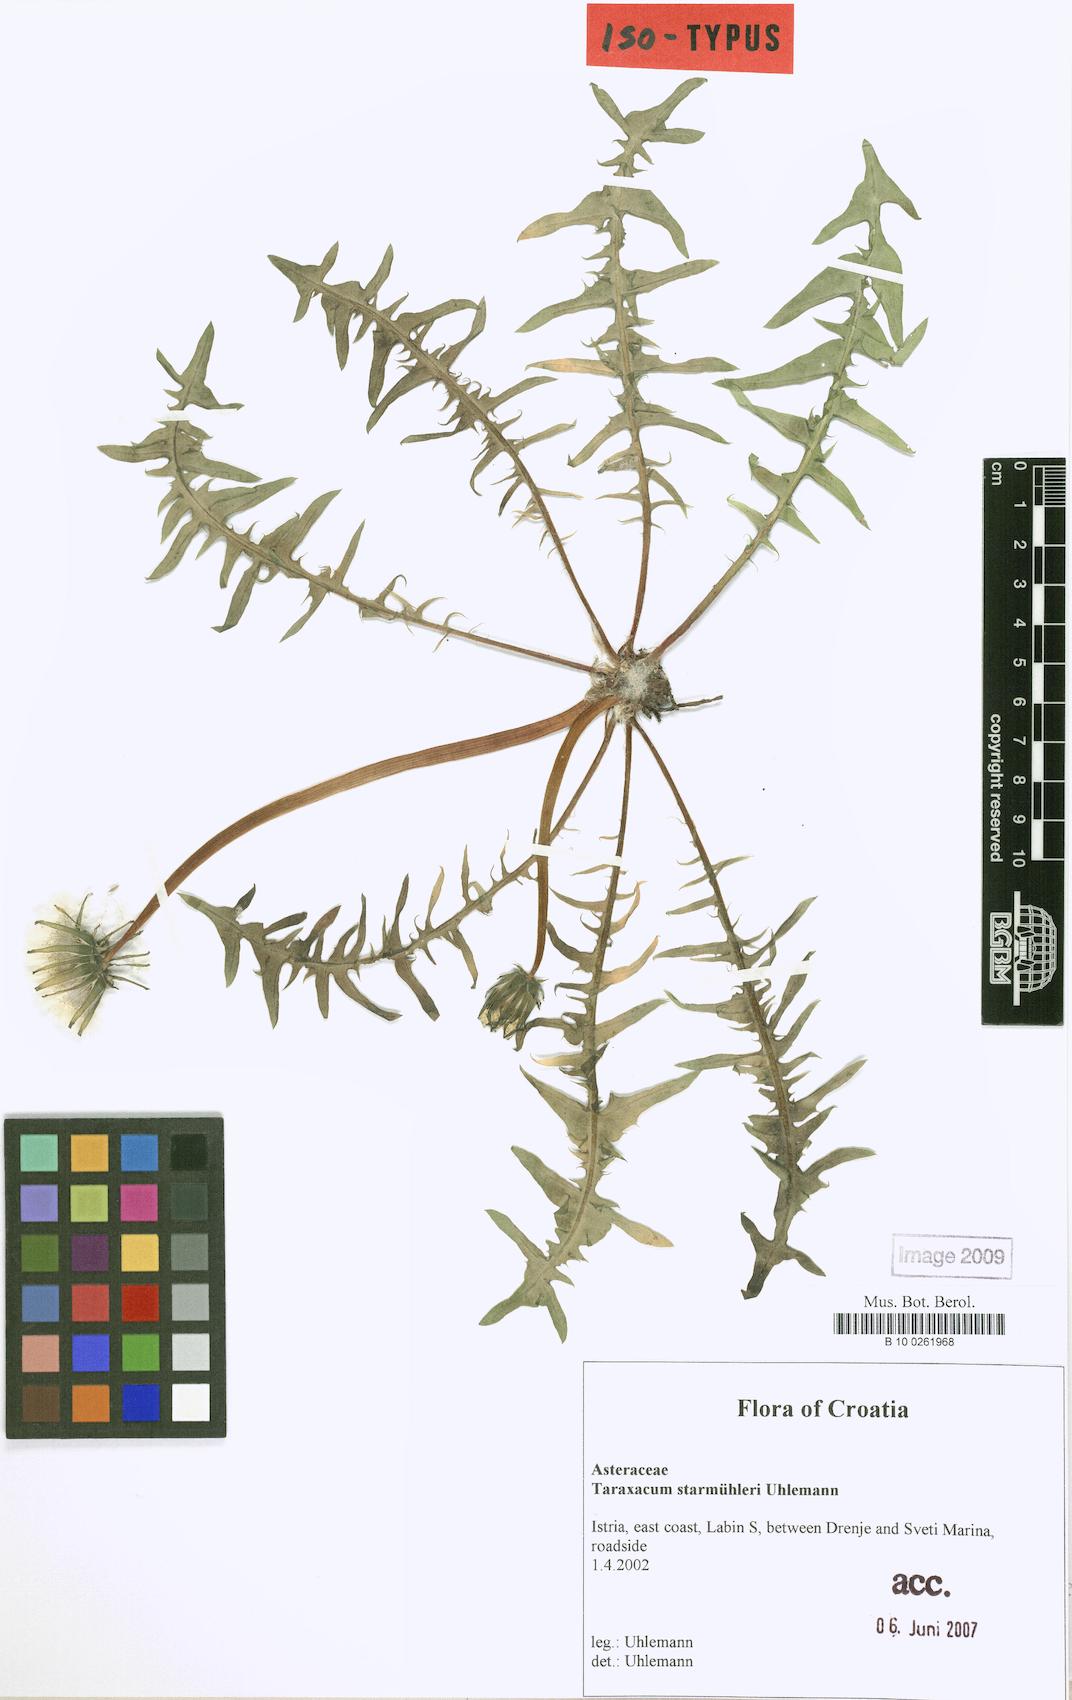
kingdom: Plantae
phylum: Tracheophyta
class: Magnoliopsida
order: Asterales
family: Asteraceae
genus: Taraxacum
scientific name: Taraxacum starmuehleri
